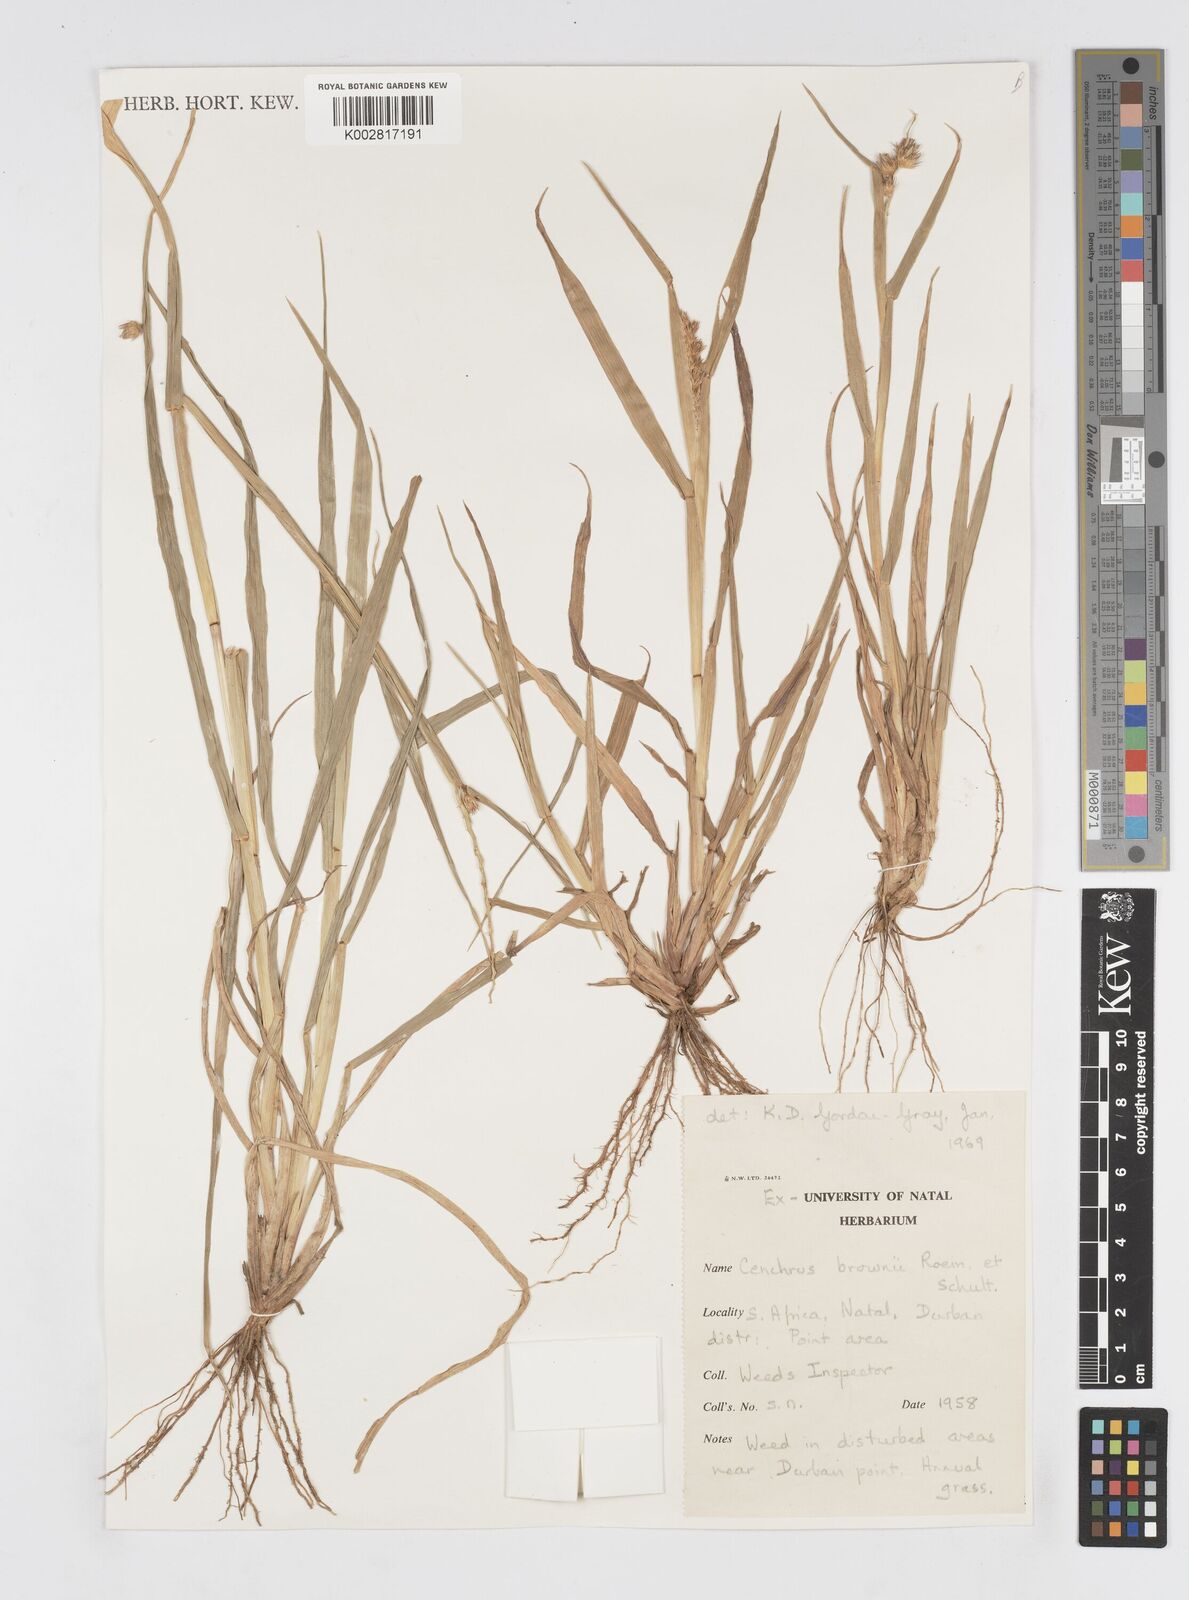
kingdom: Plantae
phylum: Tracheophyta
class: Liliopsida
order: Poales
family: Poaceae
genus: Cenchrus
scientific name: Cenchrus brownii
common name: Slim-bristle sandbur
